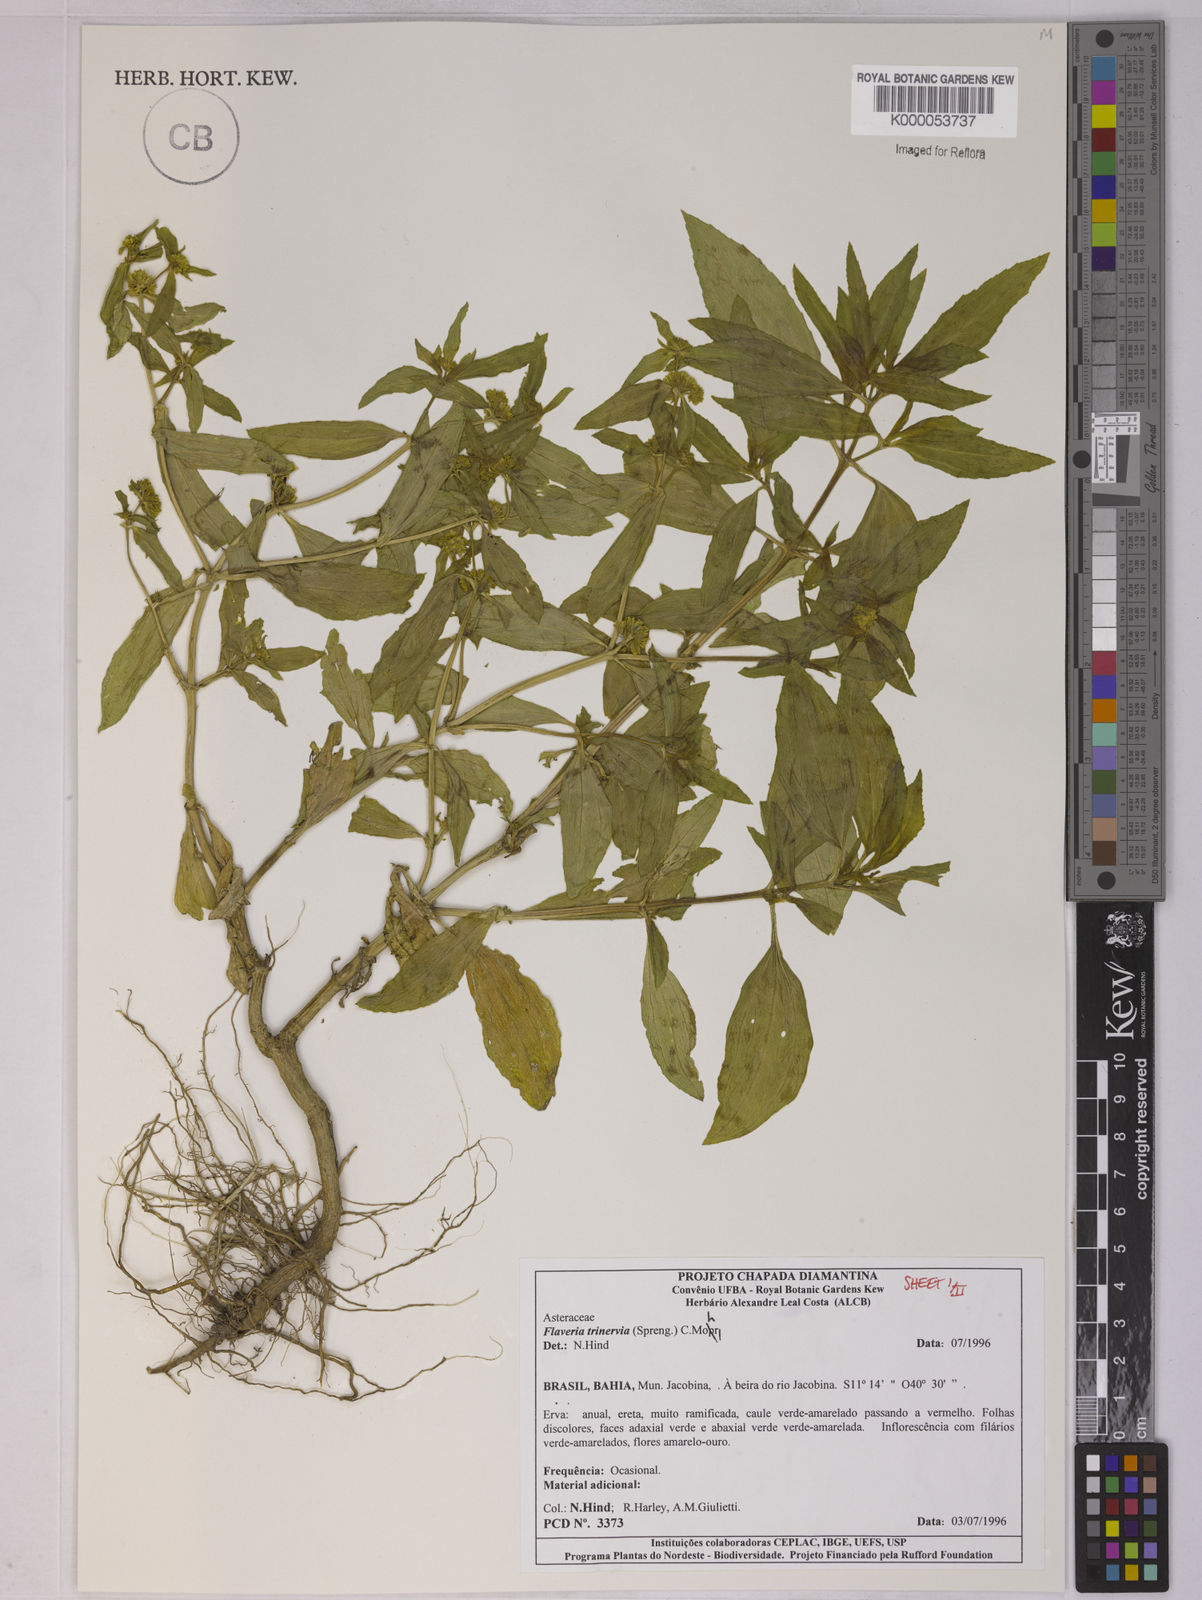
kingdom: Plantae
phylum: Tracheophyta
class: Magnoliopsida
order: Asterales
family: Asteraceae
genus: Flaveria
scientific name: Flaveria trinervia
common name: Clustered yellowtops
